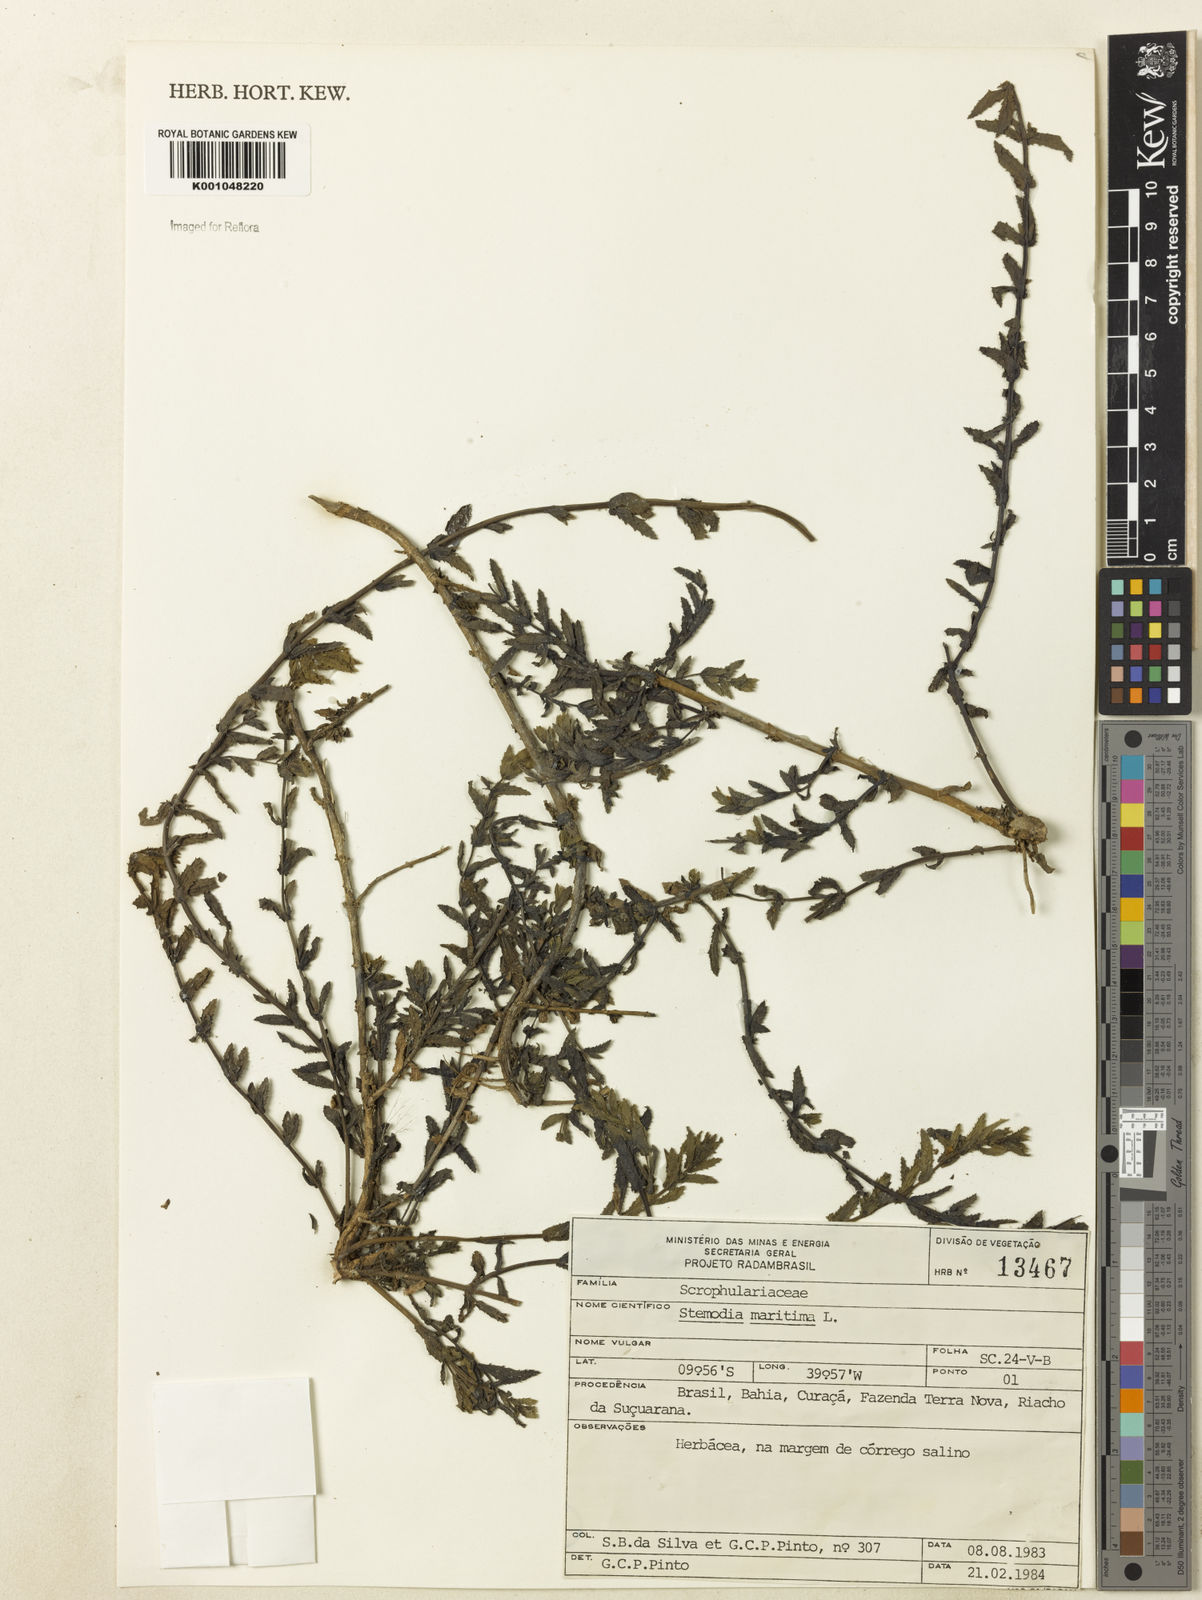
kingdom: Plantae
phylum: Tracheophyta
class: Magnoliopsida
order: Lamiales
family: Plantaginaceae
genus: Stemodia
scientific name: Stemodia maritima
